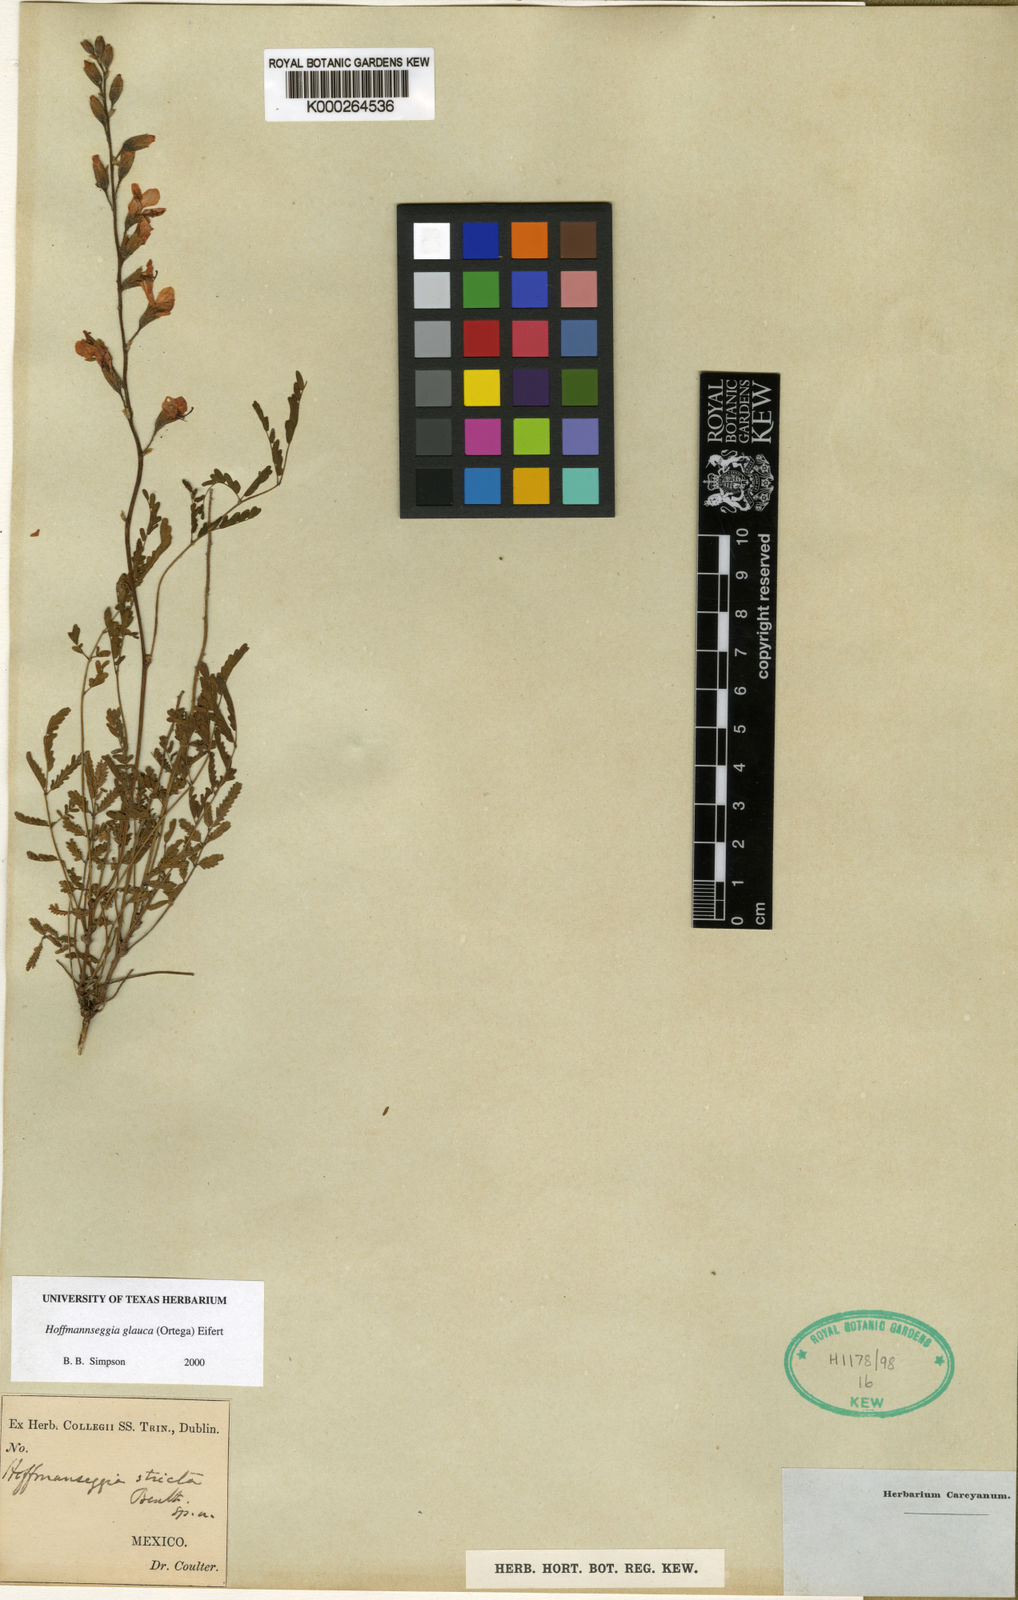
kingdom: Plantae
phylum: Tracheophyta
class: Magnoliopsida
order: Fabales
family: Fabaceae
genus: Hoffmannseggia
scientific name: Hoffmannseggia glauca
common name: Pignut
